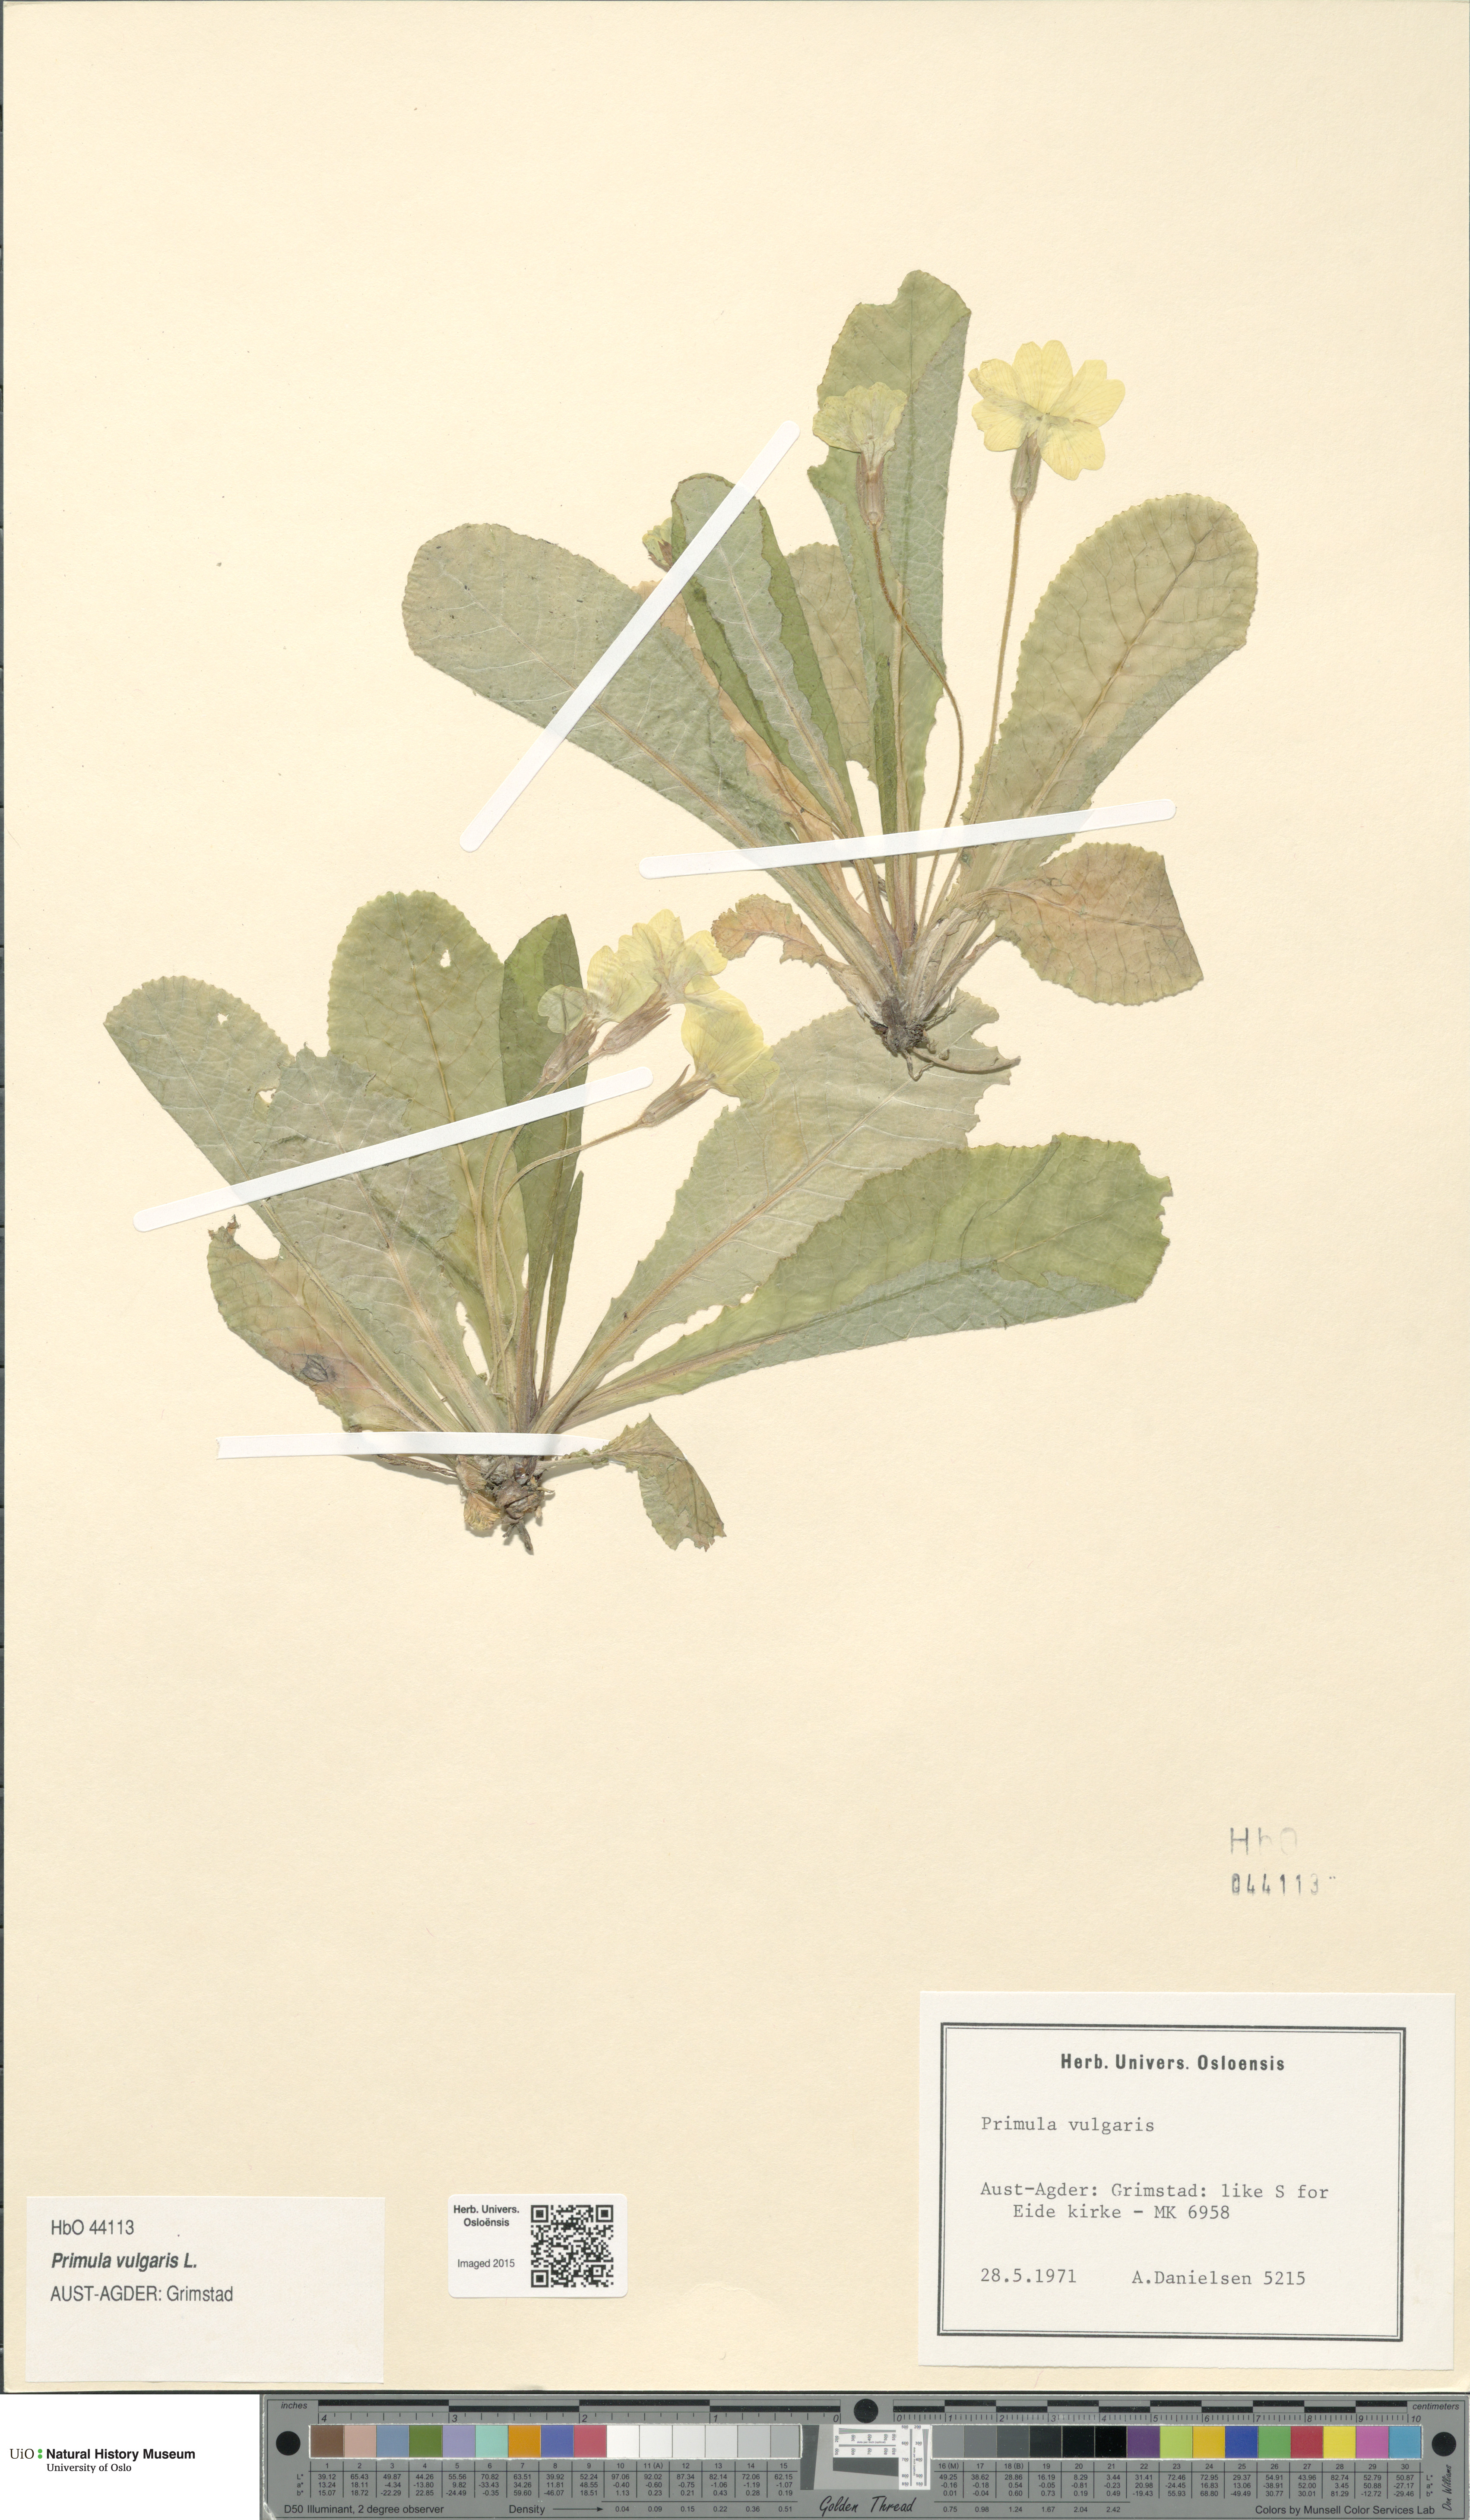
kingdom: Plantae
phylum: Tracheophyta
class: Magnoliopsida
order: Ericales
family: Primulaceae
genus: Primula
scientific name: Primula vulgaris
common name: Primrose
